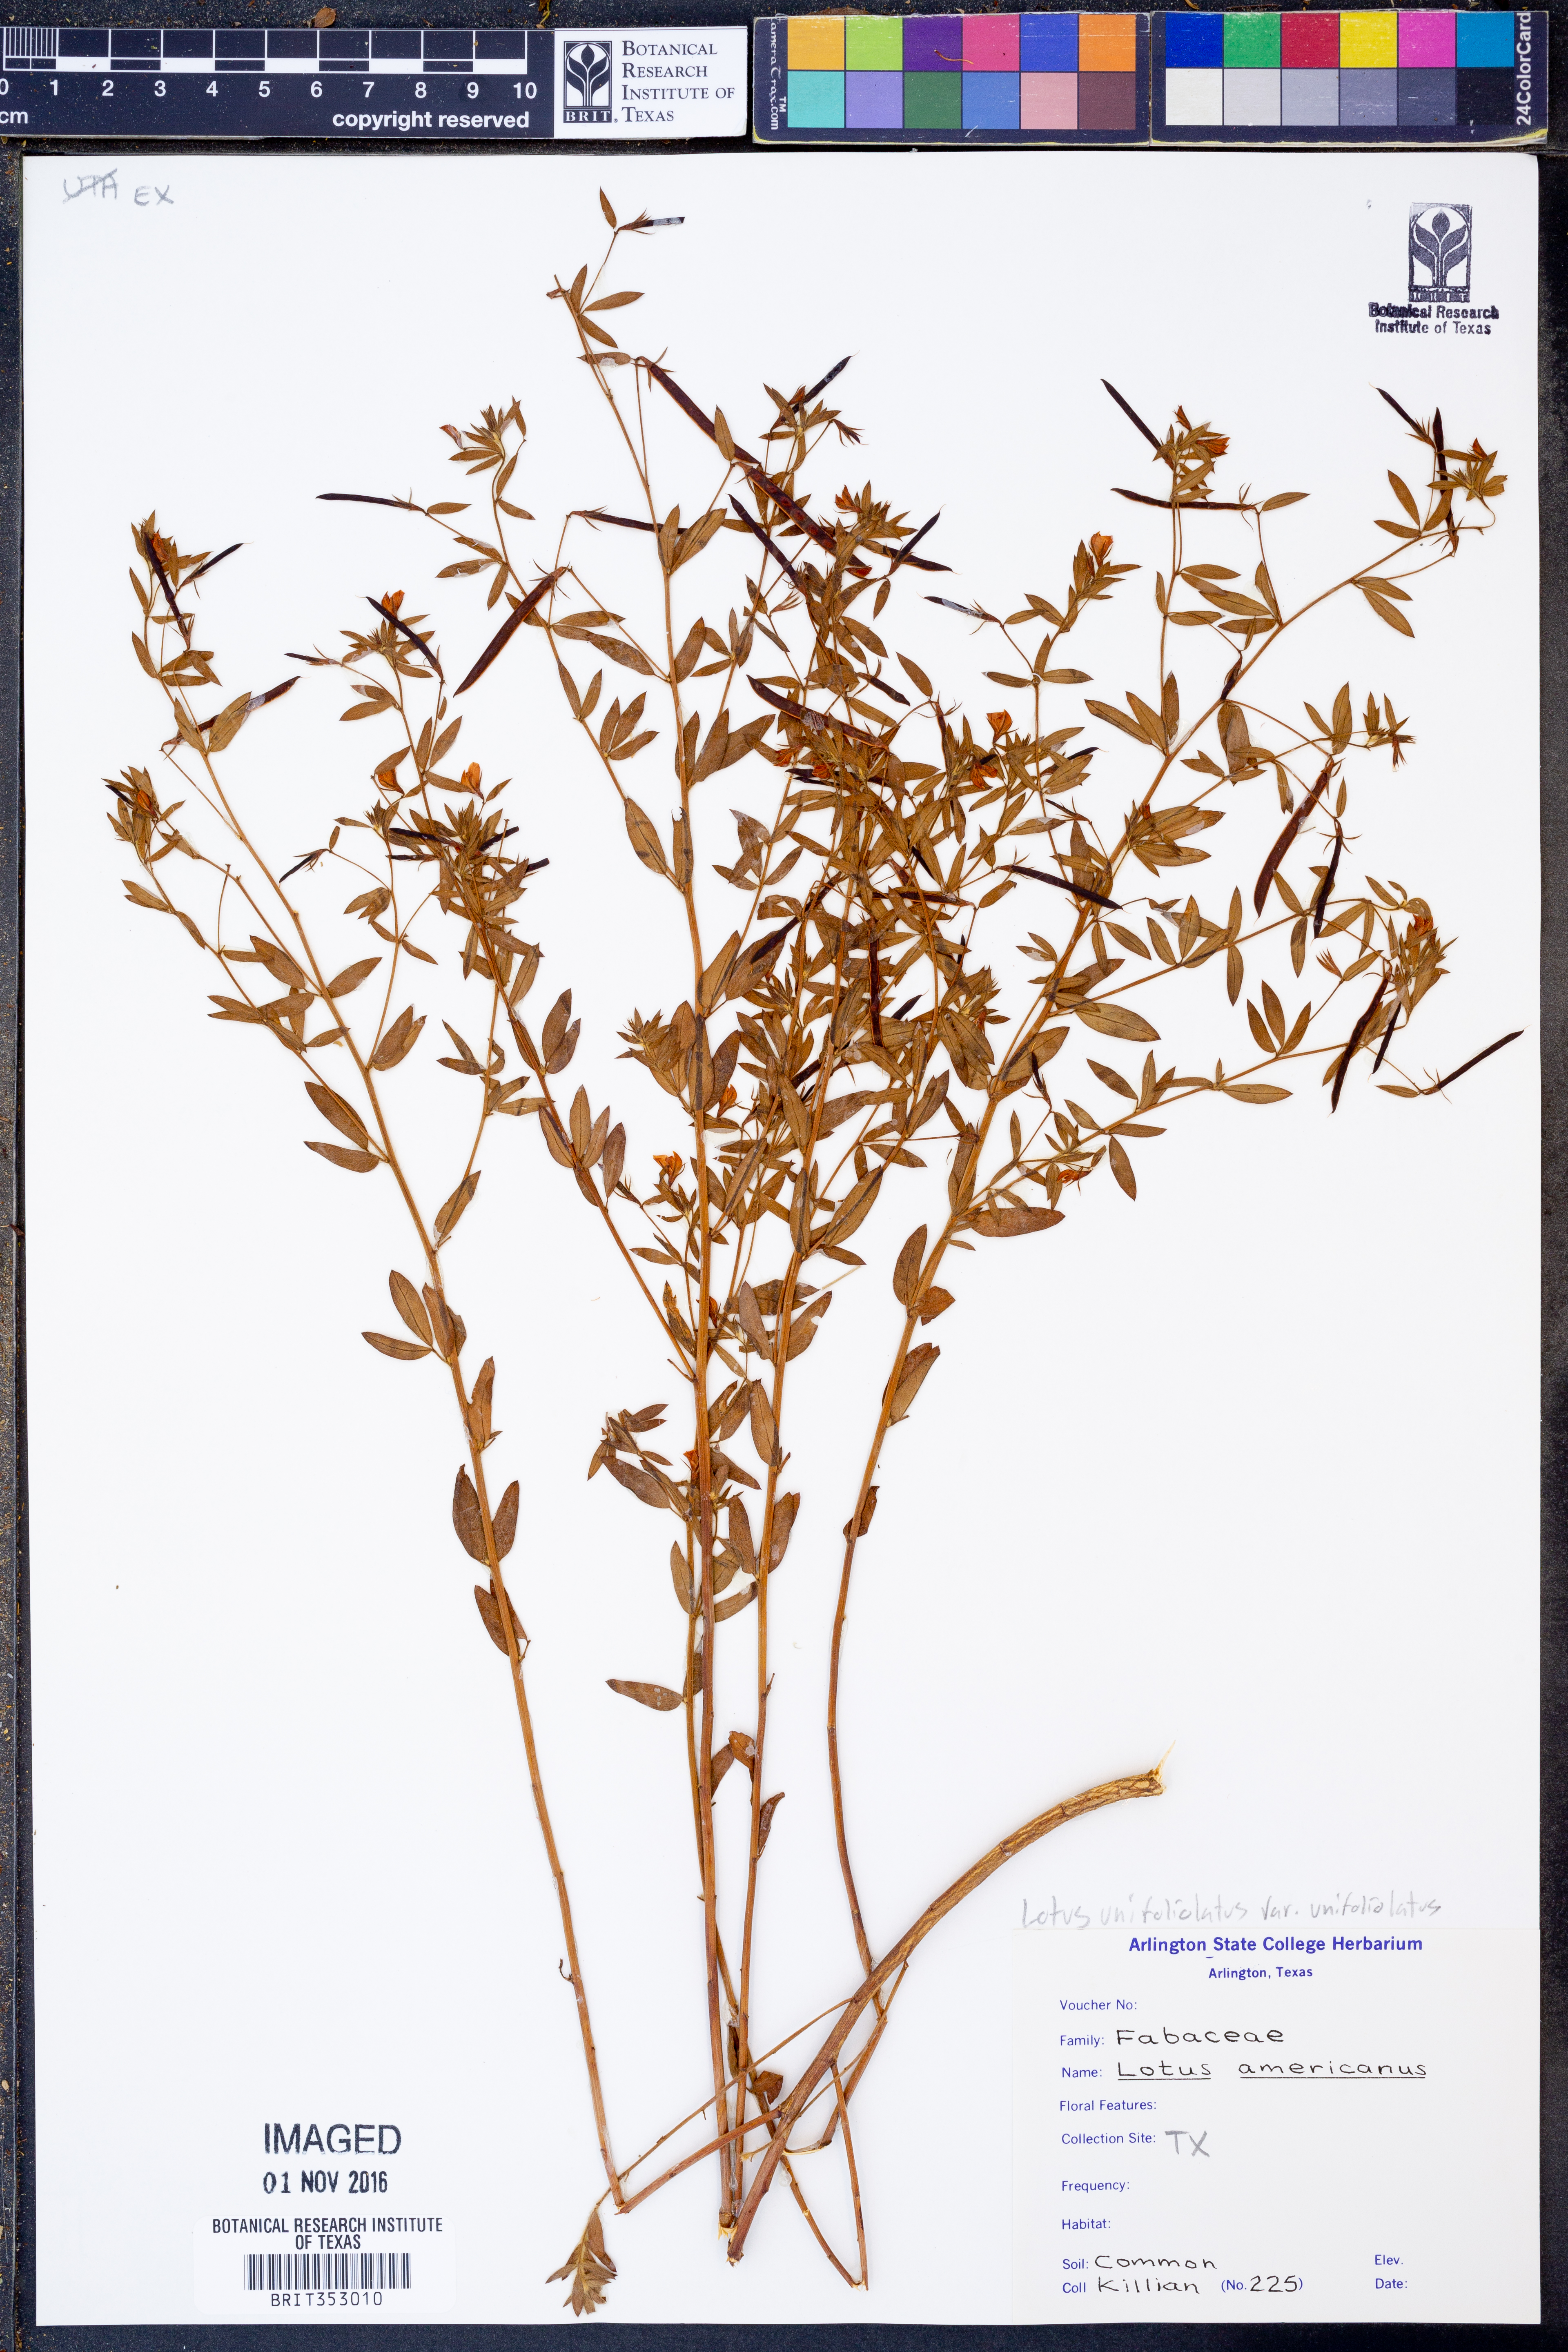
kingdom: Plantae
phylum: Tracheophyta
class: Magnoliopsida
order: Fabales
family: Fabaceae
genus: Acmispon
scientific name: Acmispon americanus
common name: American bird's-foot trefoil
